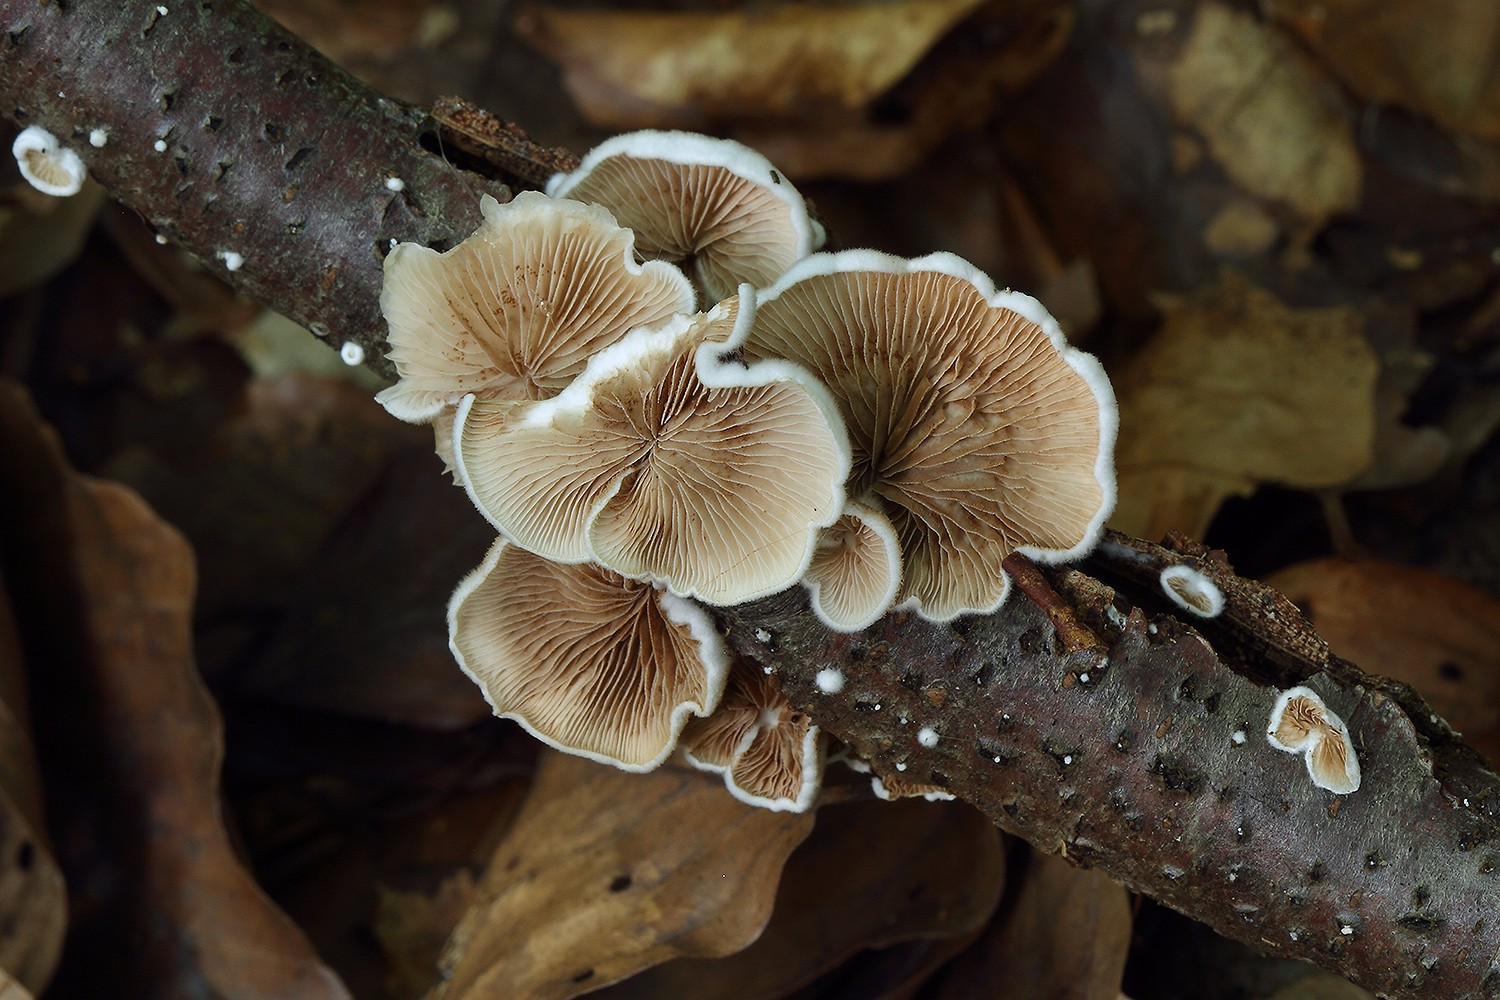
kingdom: Fungi
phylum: Basidiomycota
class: Agaricomycetes
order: Agaricales
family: Crepidotaceae
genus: Crepidotus
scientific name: Crepidotus variabilis
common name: forskelligformet muslingesvamp
